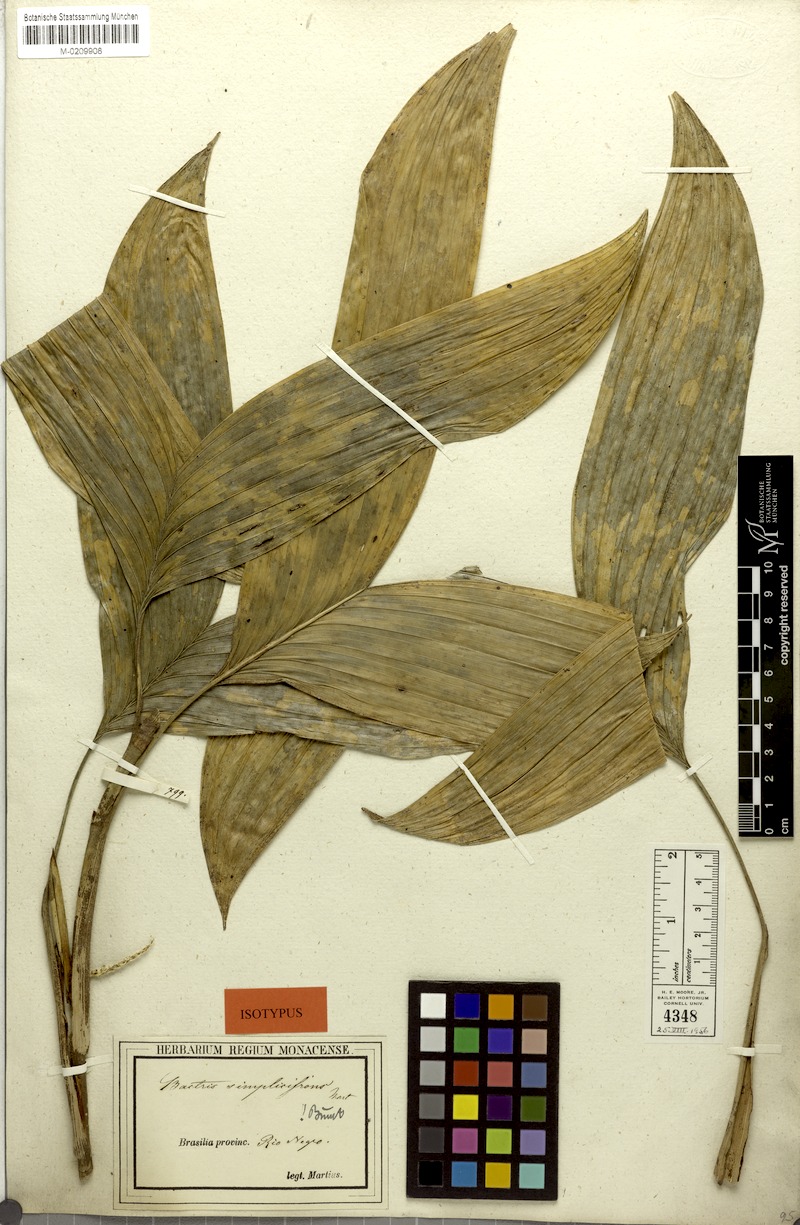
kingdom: Plantae
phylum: Tracheophyta
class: Liliopsida
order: Arecales
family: Arecaceae
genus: Bactris
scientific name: Bactris simplicifrons
